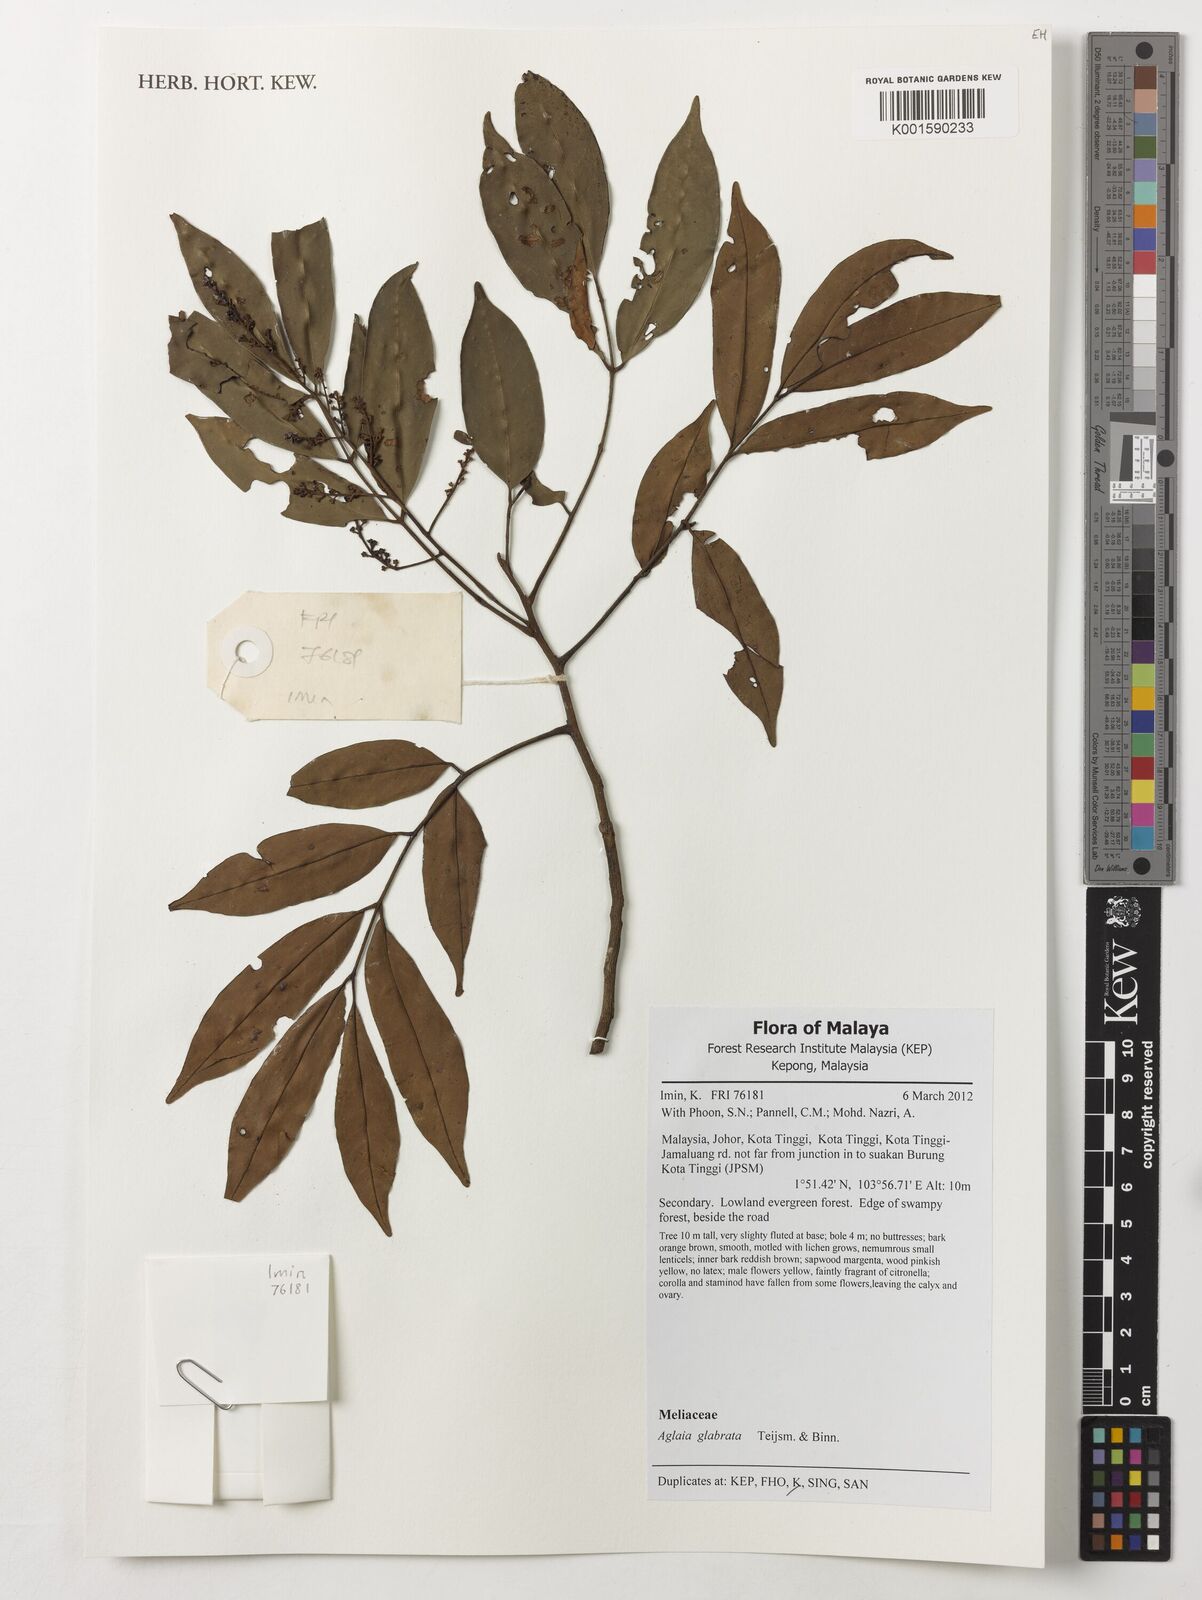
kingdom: Plantae
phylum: Tracheophyta
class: Magnoliopsida
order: Sapindales
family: Meliaceae
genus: Aglaia
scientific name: Aglaia glabrata
